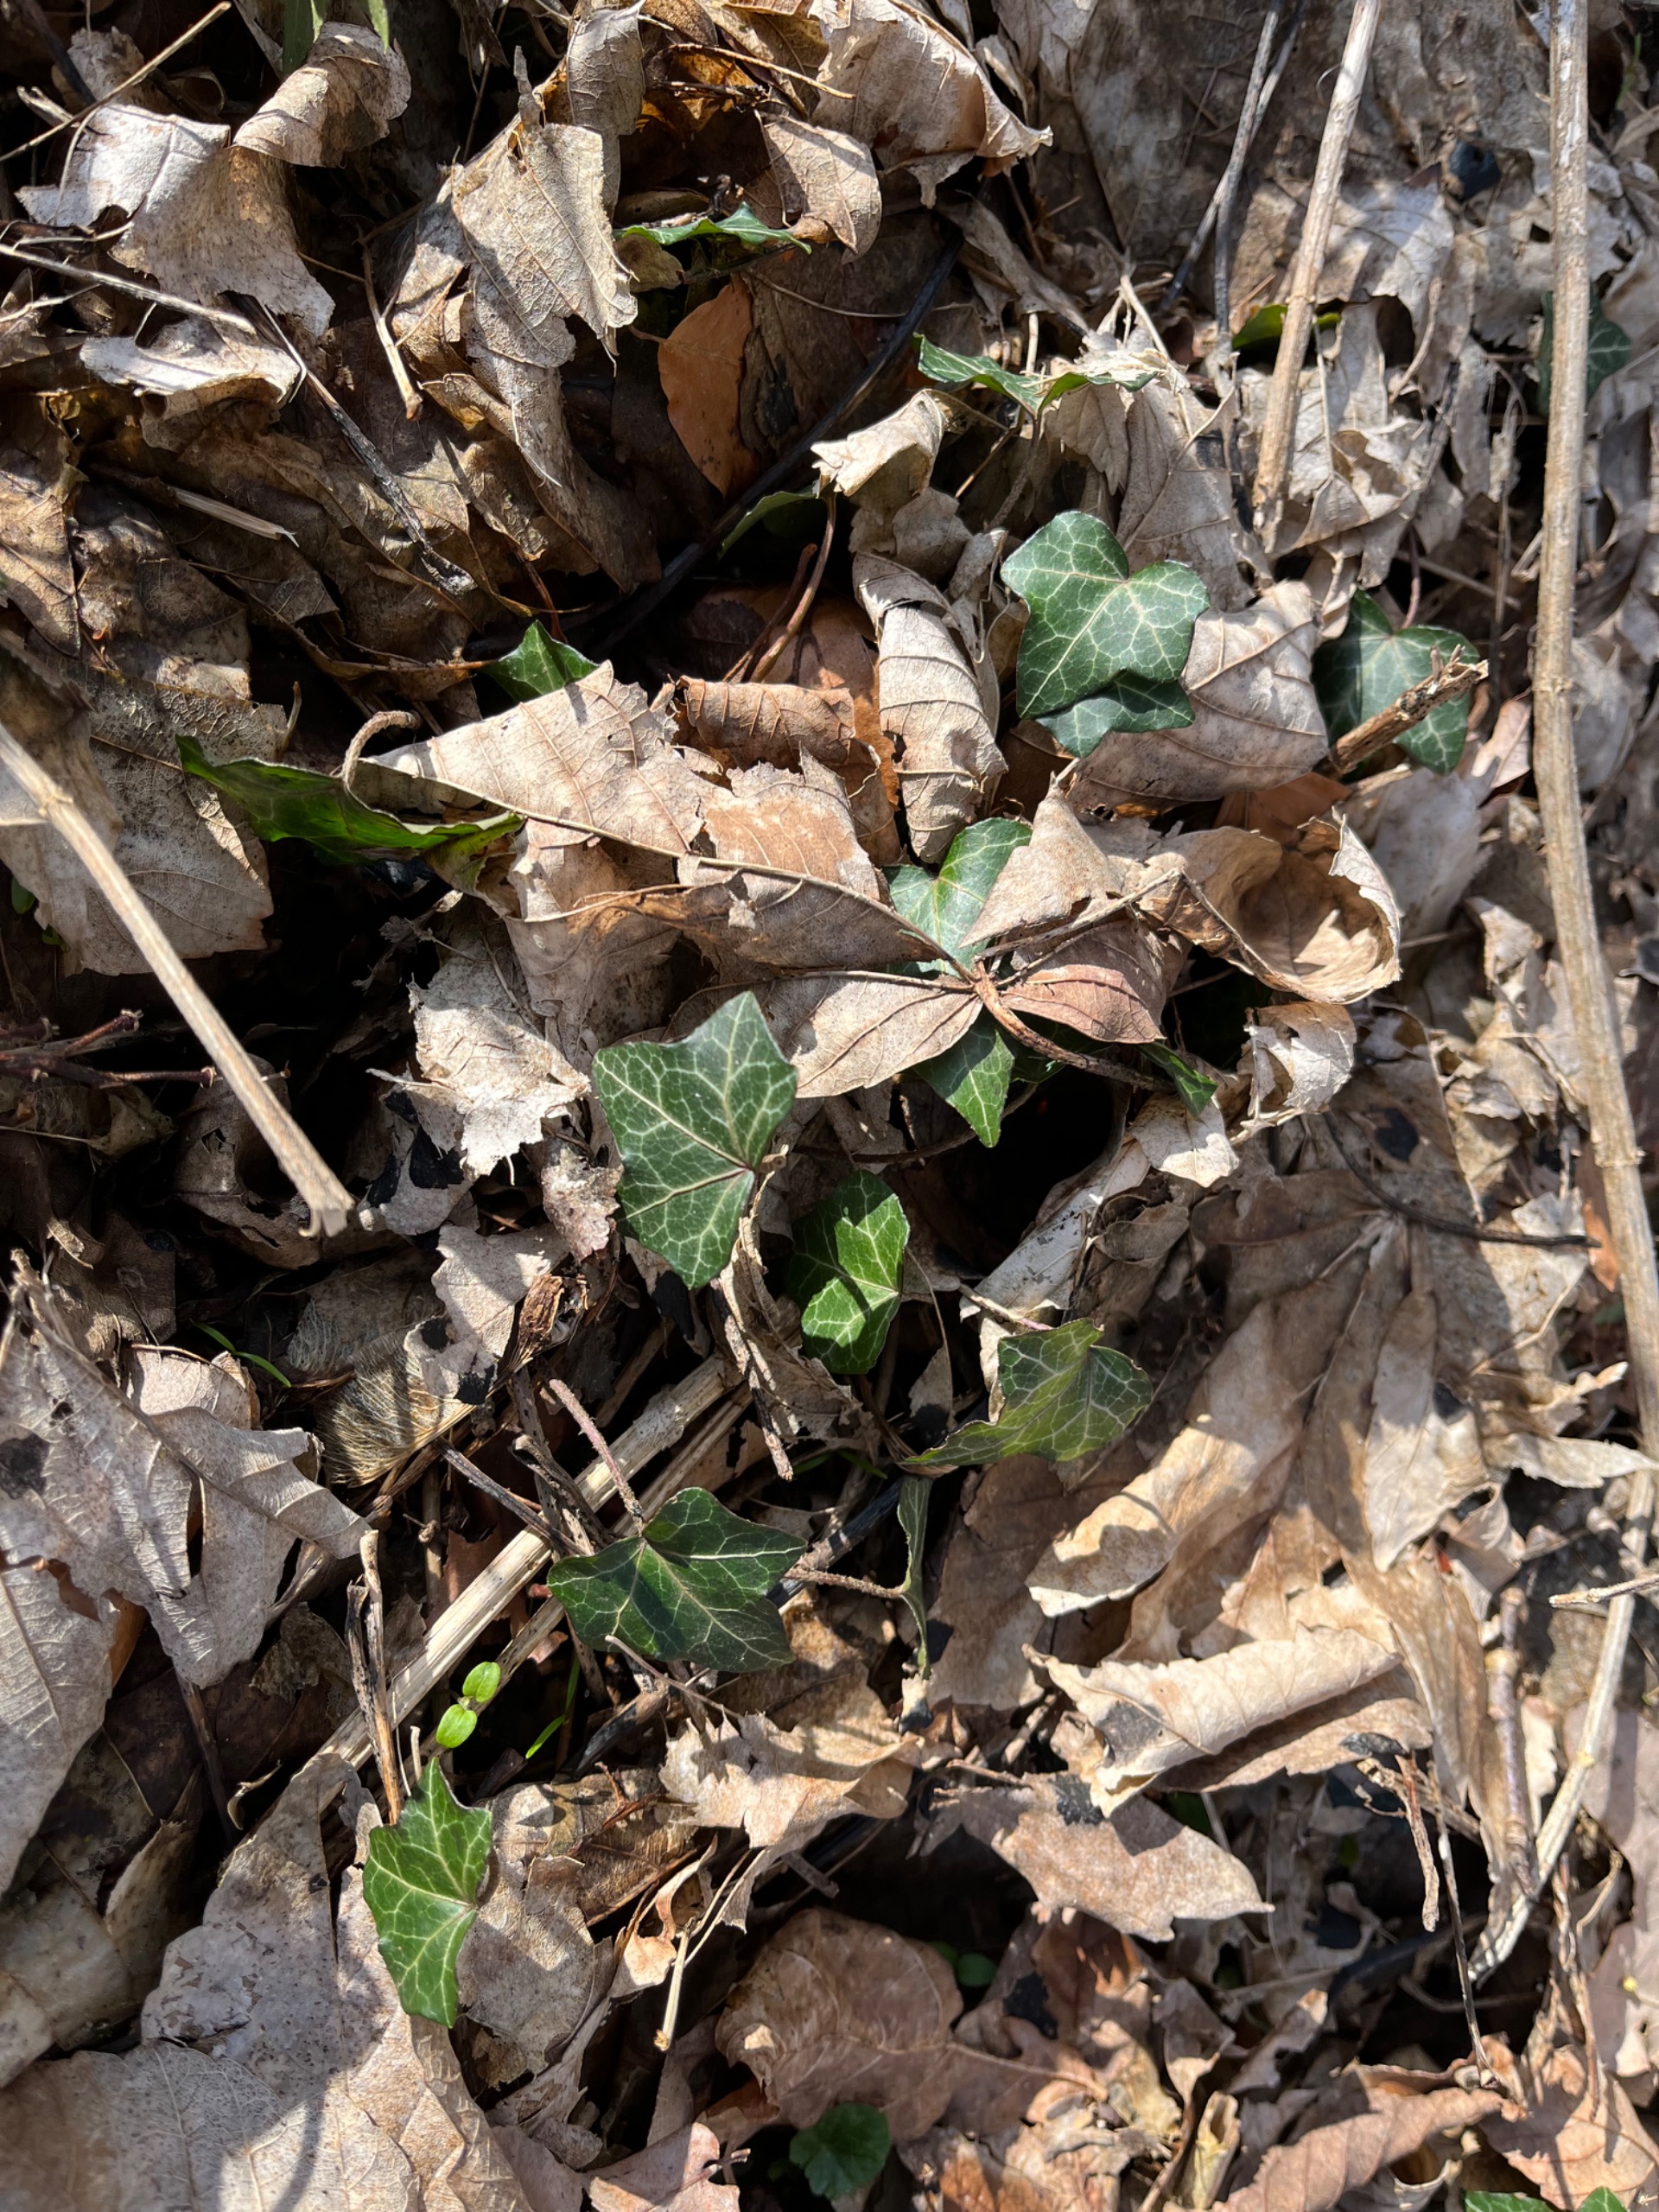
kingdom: Plantae
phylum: Tracheophyta
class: Magnoliopsida
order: Apiales
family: Araliaceae
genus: Hedera
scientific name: Hedera helix
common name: Vedbend
